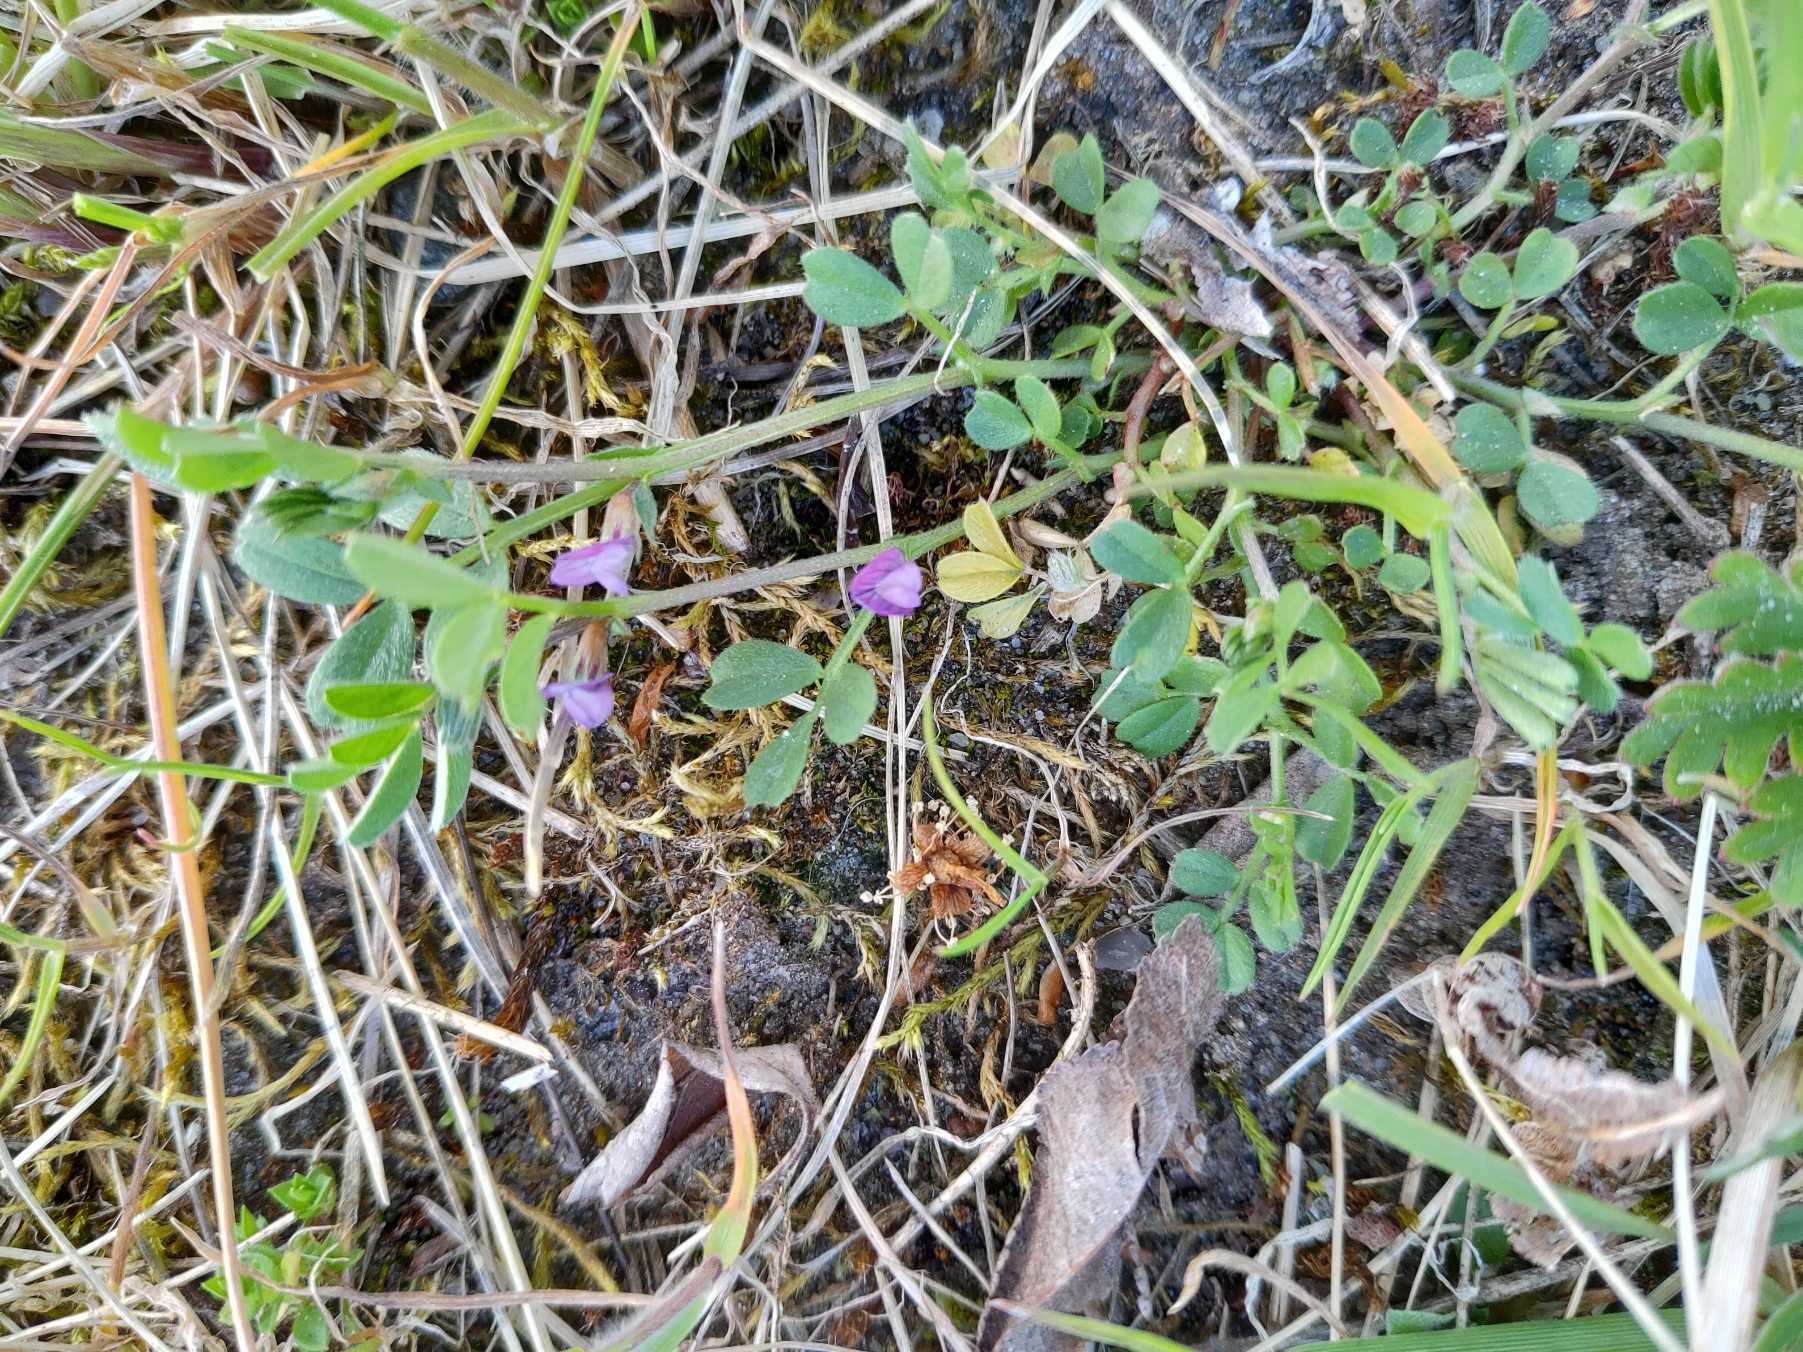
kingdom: Plantae
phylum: Tracheophyta
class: Magnoliopsida
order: Fabales
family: Fabaceae
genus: Vicia
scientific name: Vicia lathyroides
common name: Vår-vikke
